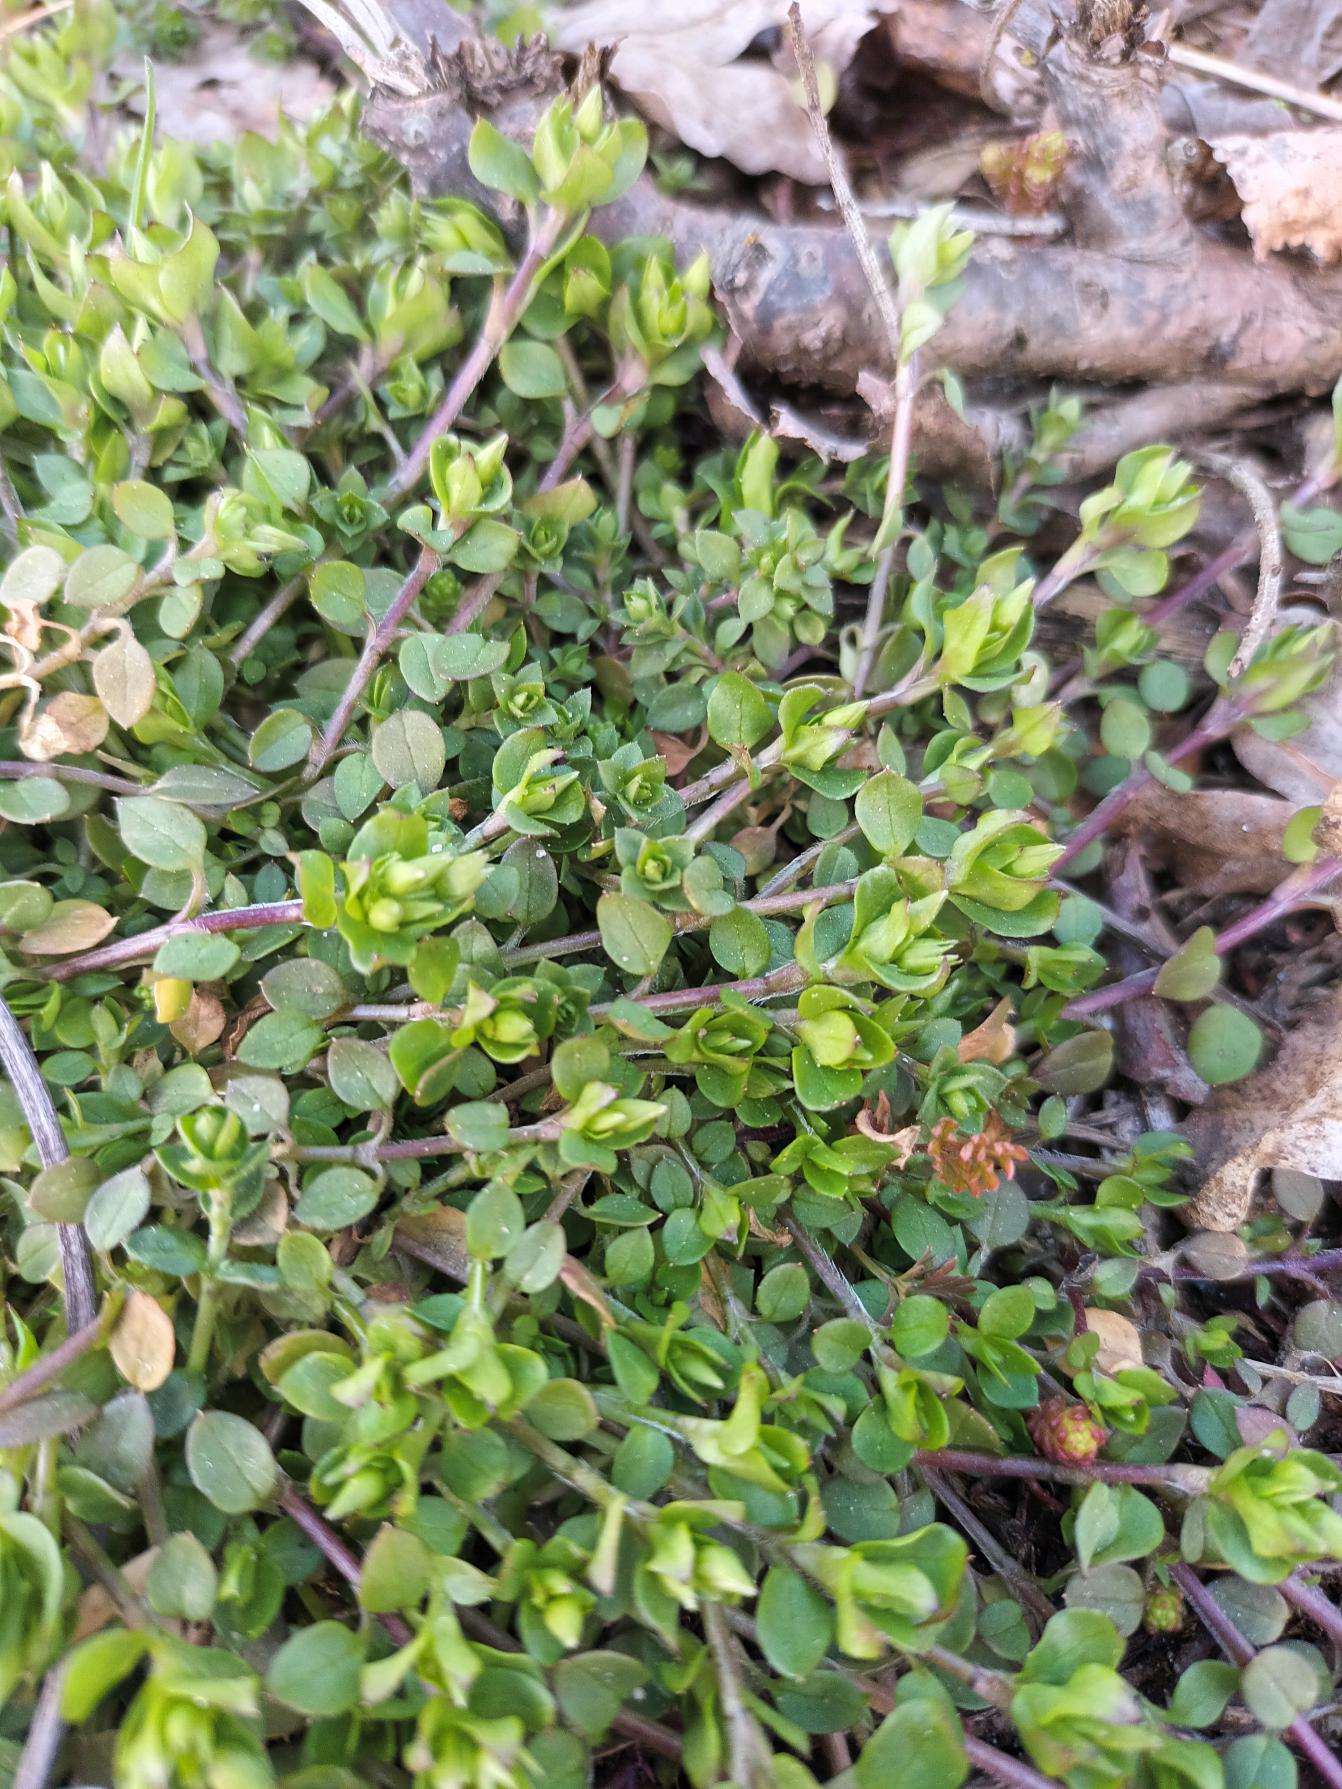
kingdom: Plantae
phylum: Tracheophyta
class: Magnoliopsida
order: Caryophyllales
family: Caryophyllaceae
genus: Stellaria
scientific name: Stellaria media
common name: Almindelig fuglegræs
